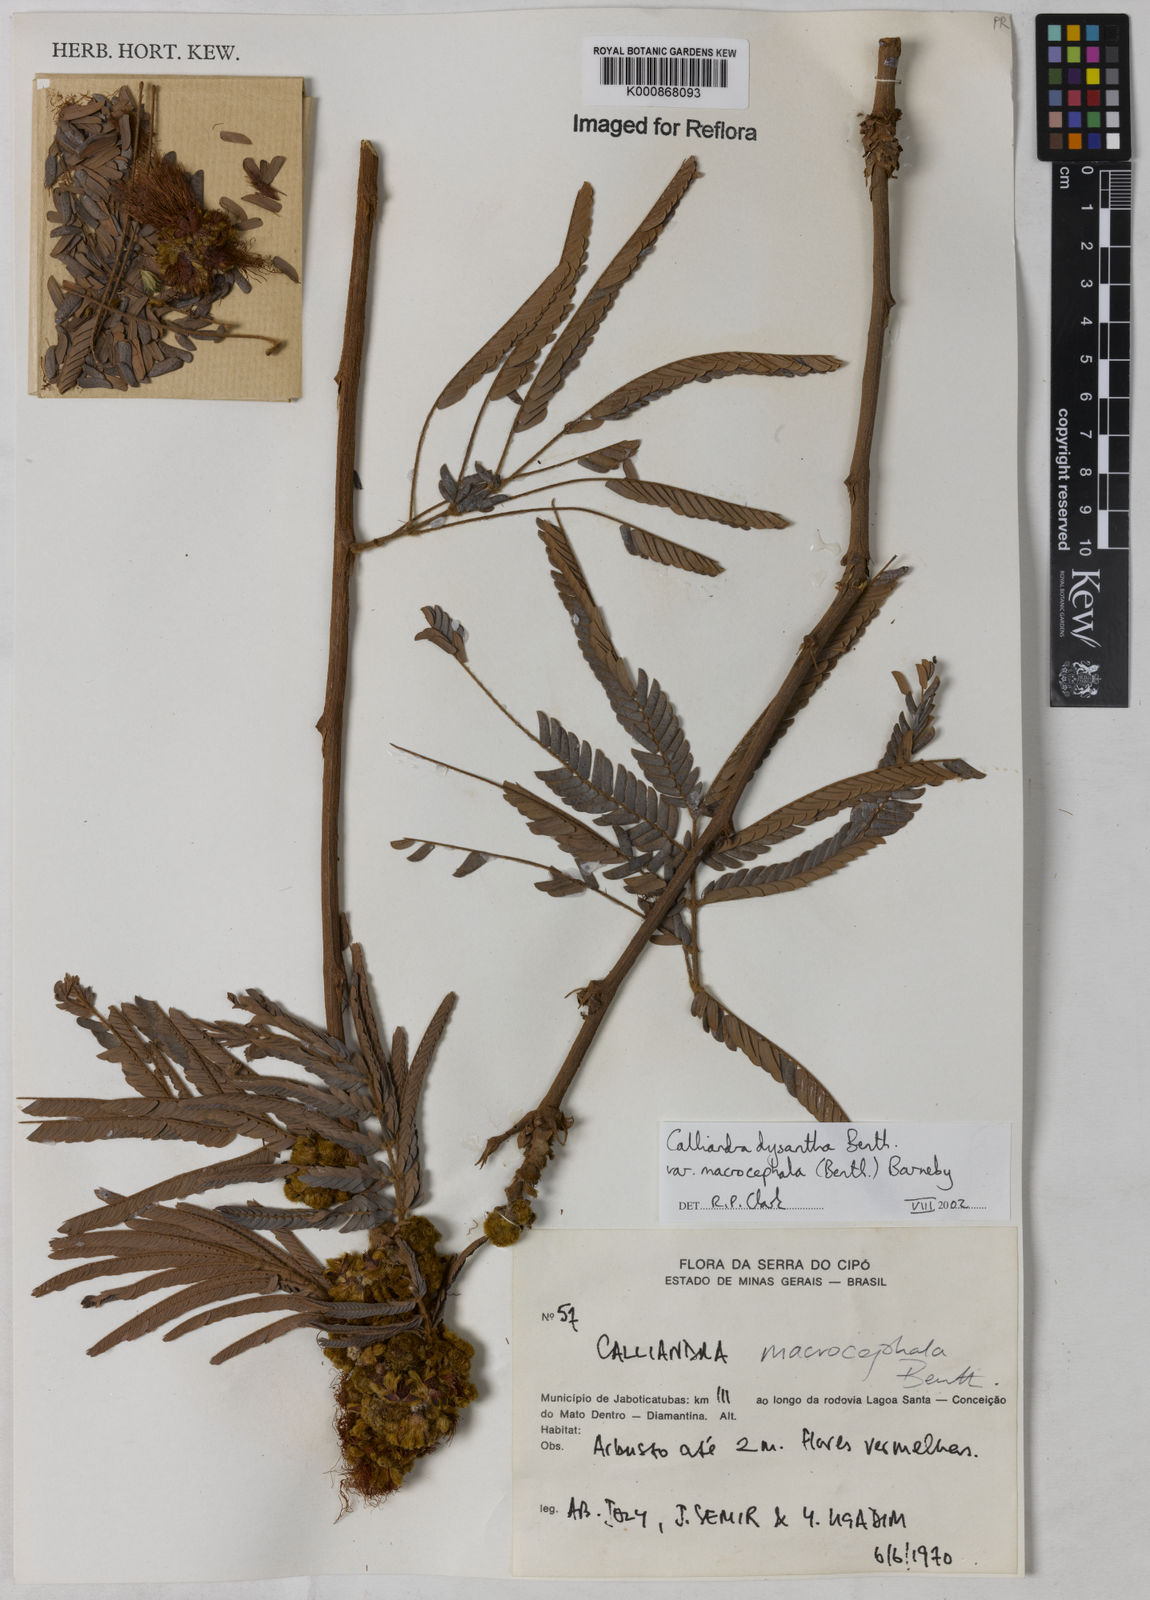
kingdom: Plantae
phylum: Tracheophyta
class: Magnoliopsida
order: Fabales
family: Fabaceae
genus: Calliandra
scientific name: Calliandra dysantha
